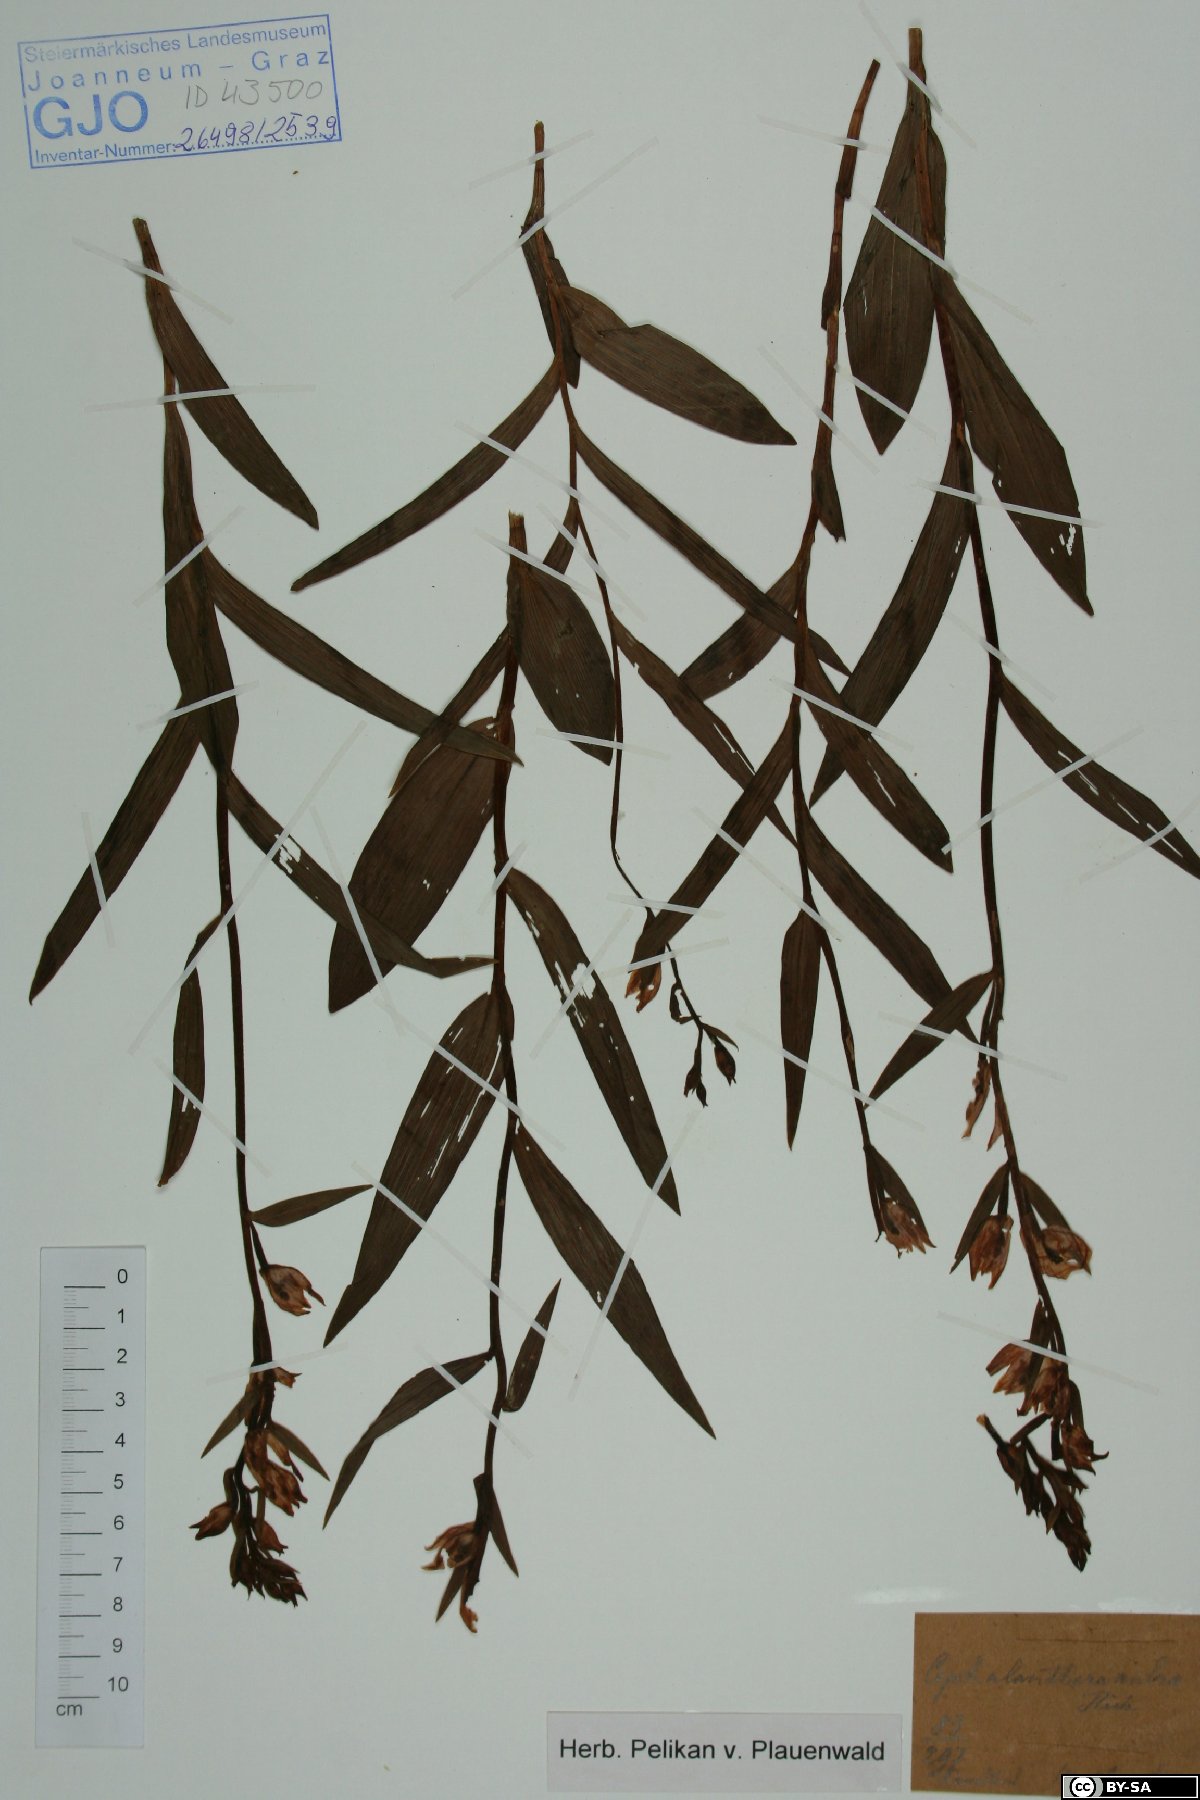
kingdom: Plantae
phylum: Tracheophyta
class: Liliopsida
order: Asparagales
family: Orchidaceae
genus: Cephalanthera
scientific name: Cephalanthera rubra
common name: Red helleborine
